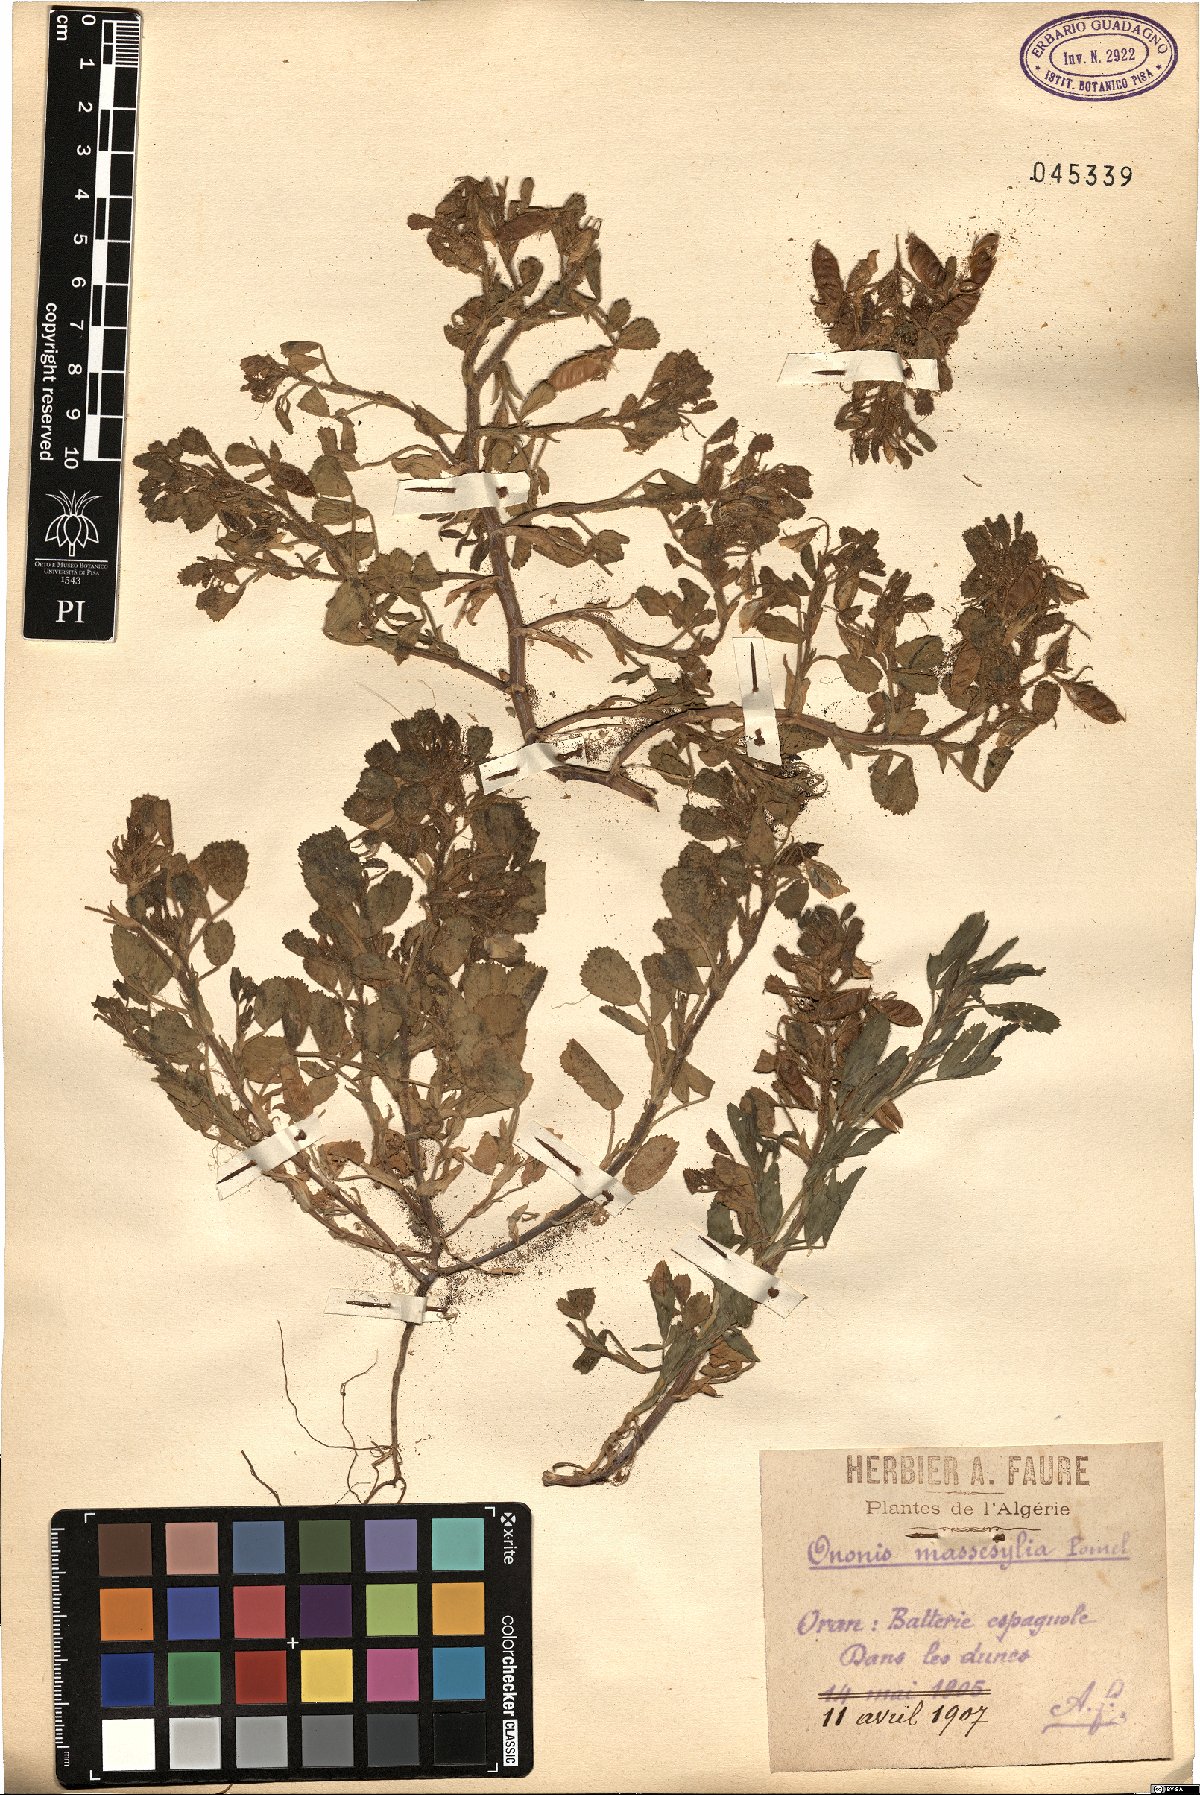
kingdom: Plantae
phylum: Tracheophyta
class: Magnoliopsida
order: Fabales
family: Fabaceae
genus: Ononis
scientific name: Ononis antennata
